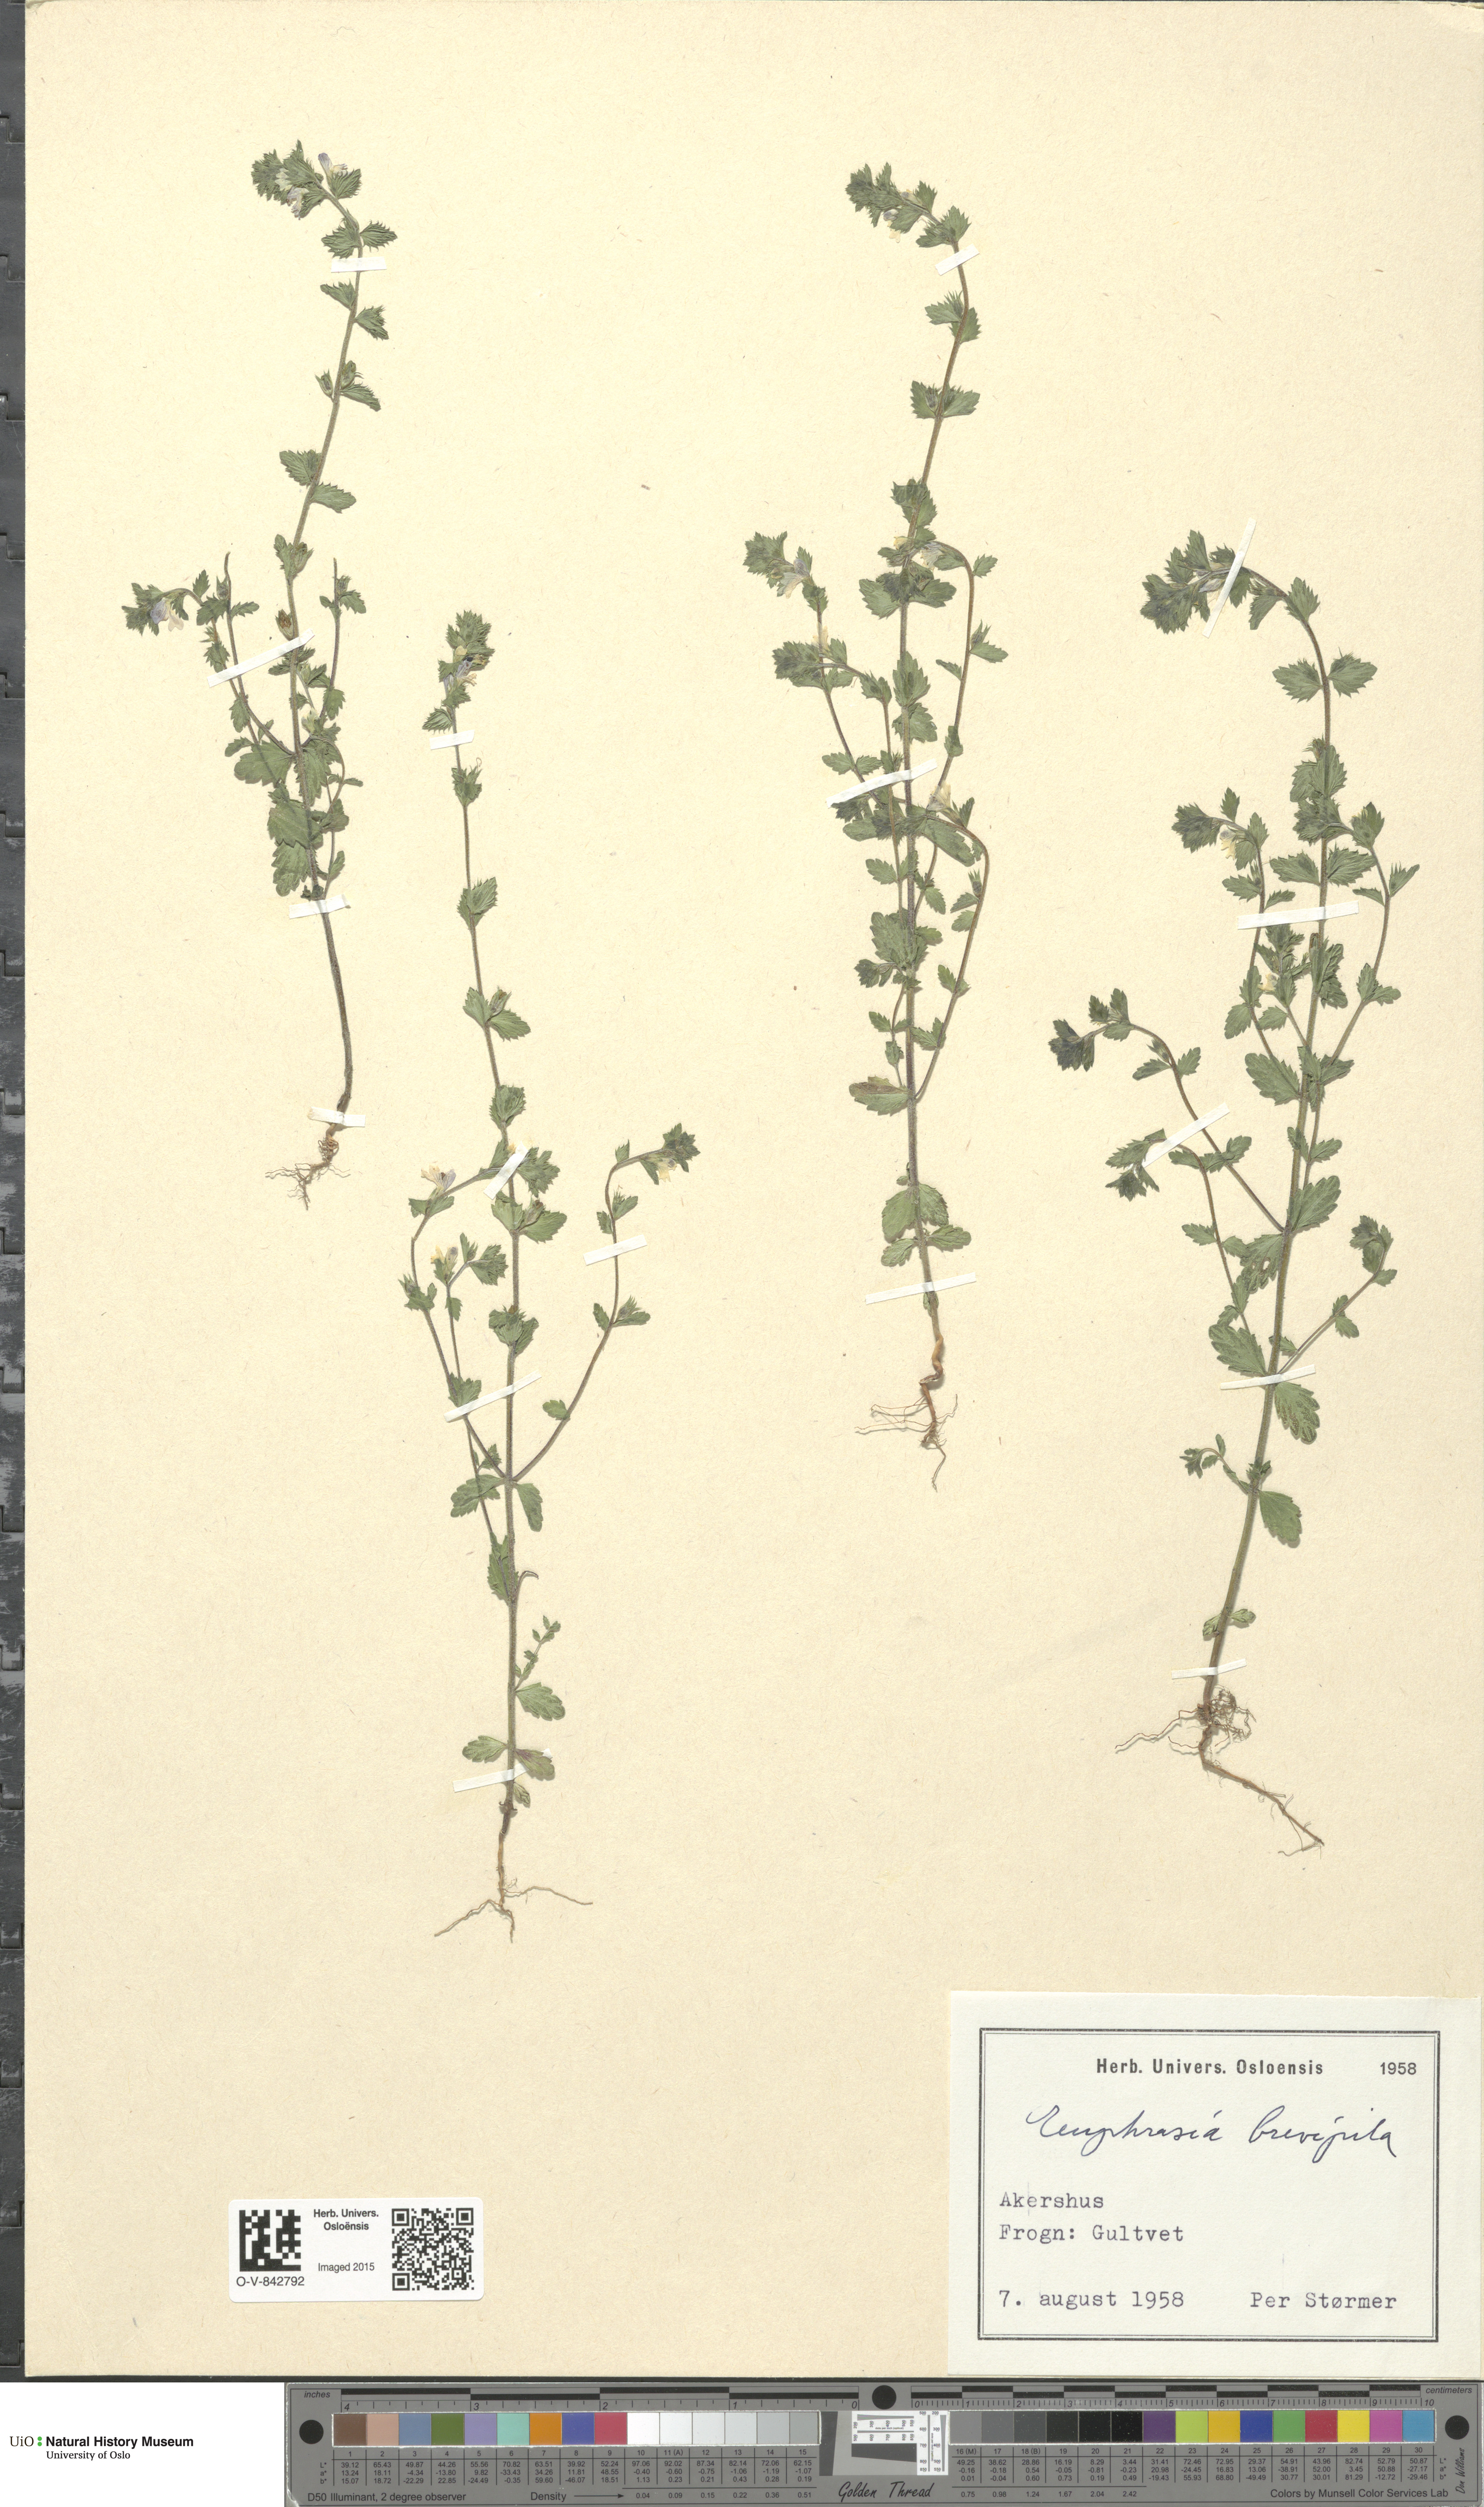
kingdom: Plantae
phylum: Tracheophyta
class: Magnoliopsida
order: Lamiales
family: Orobanchaceae
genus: Euphrasia
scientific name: Euphrasia vernalis
